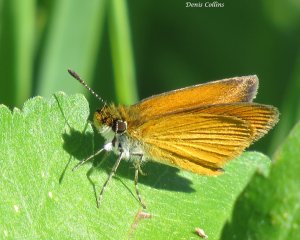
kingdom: Animalia
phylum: Arthropoda
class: Insecta
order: Lepidoptera
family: Hesperiidae
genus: Thymelicus
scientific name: Thymelicus lineola
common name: European Skipper
